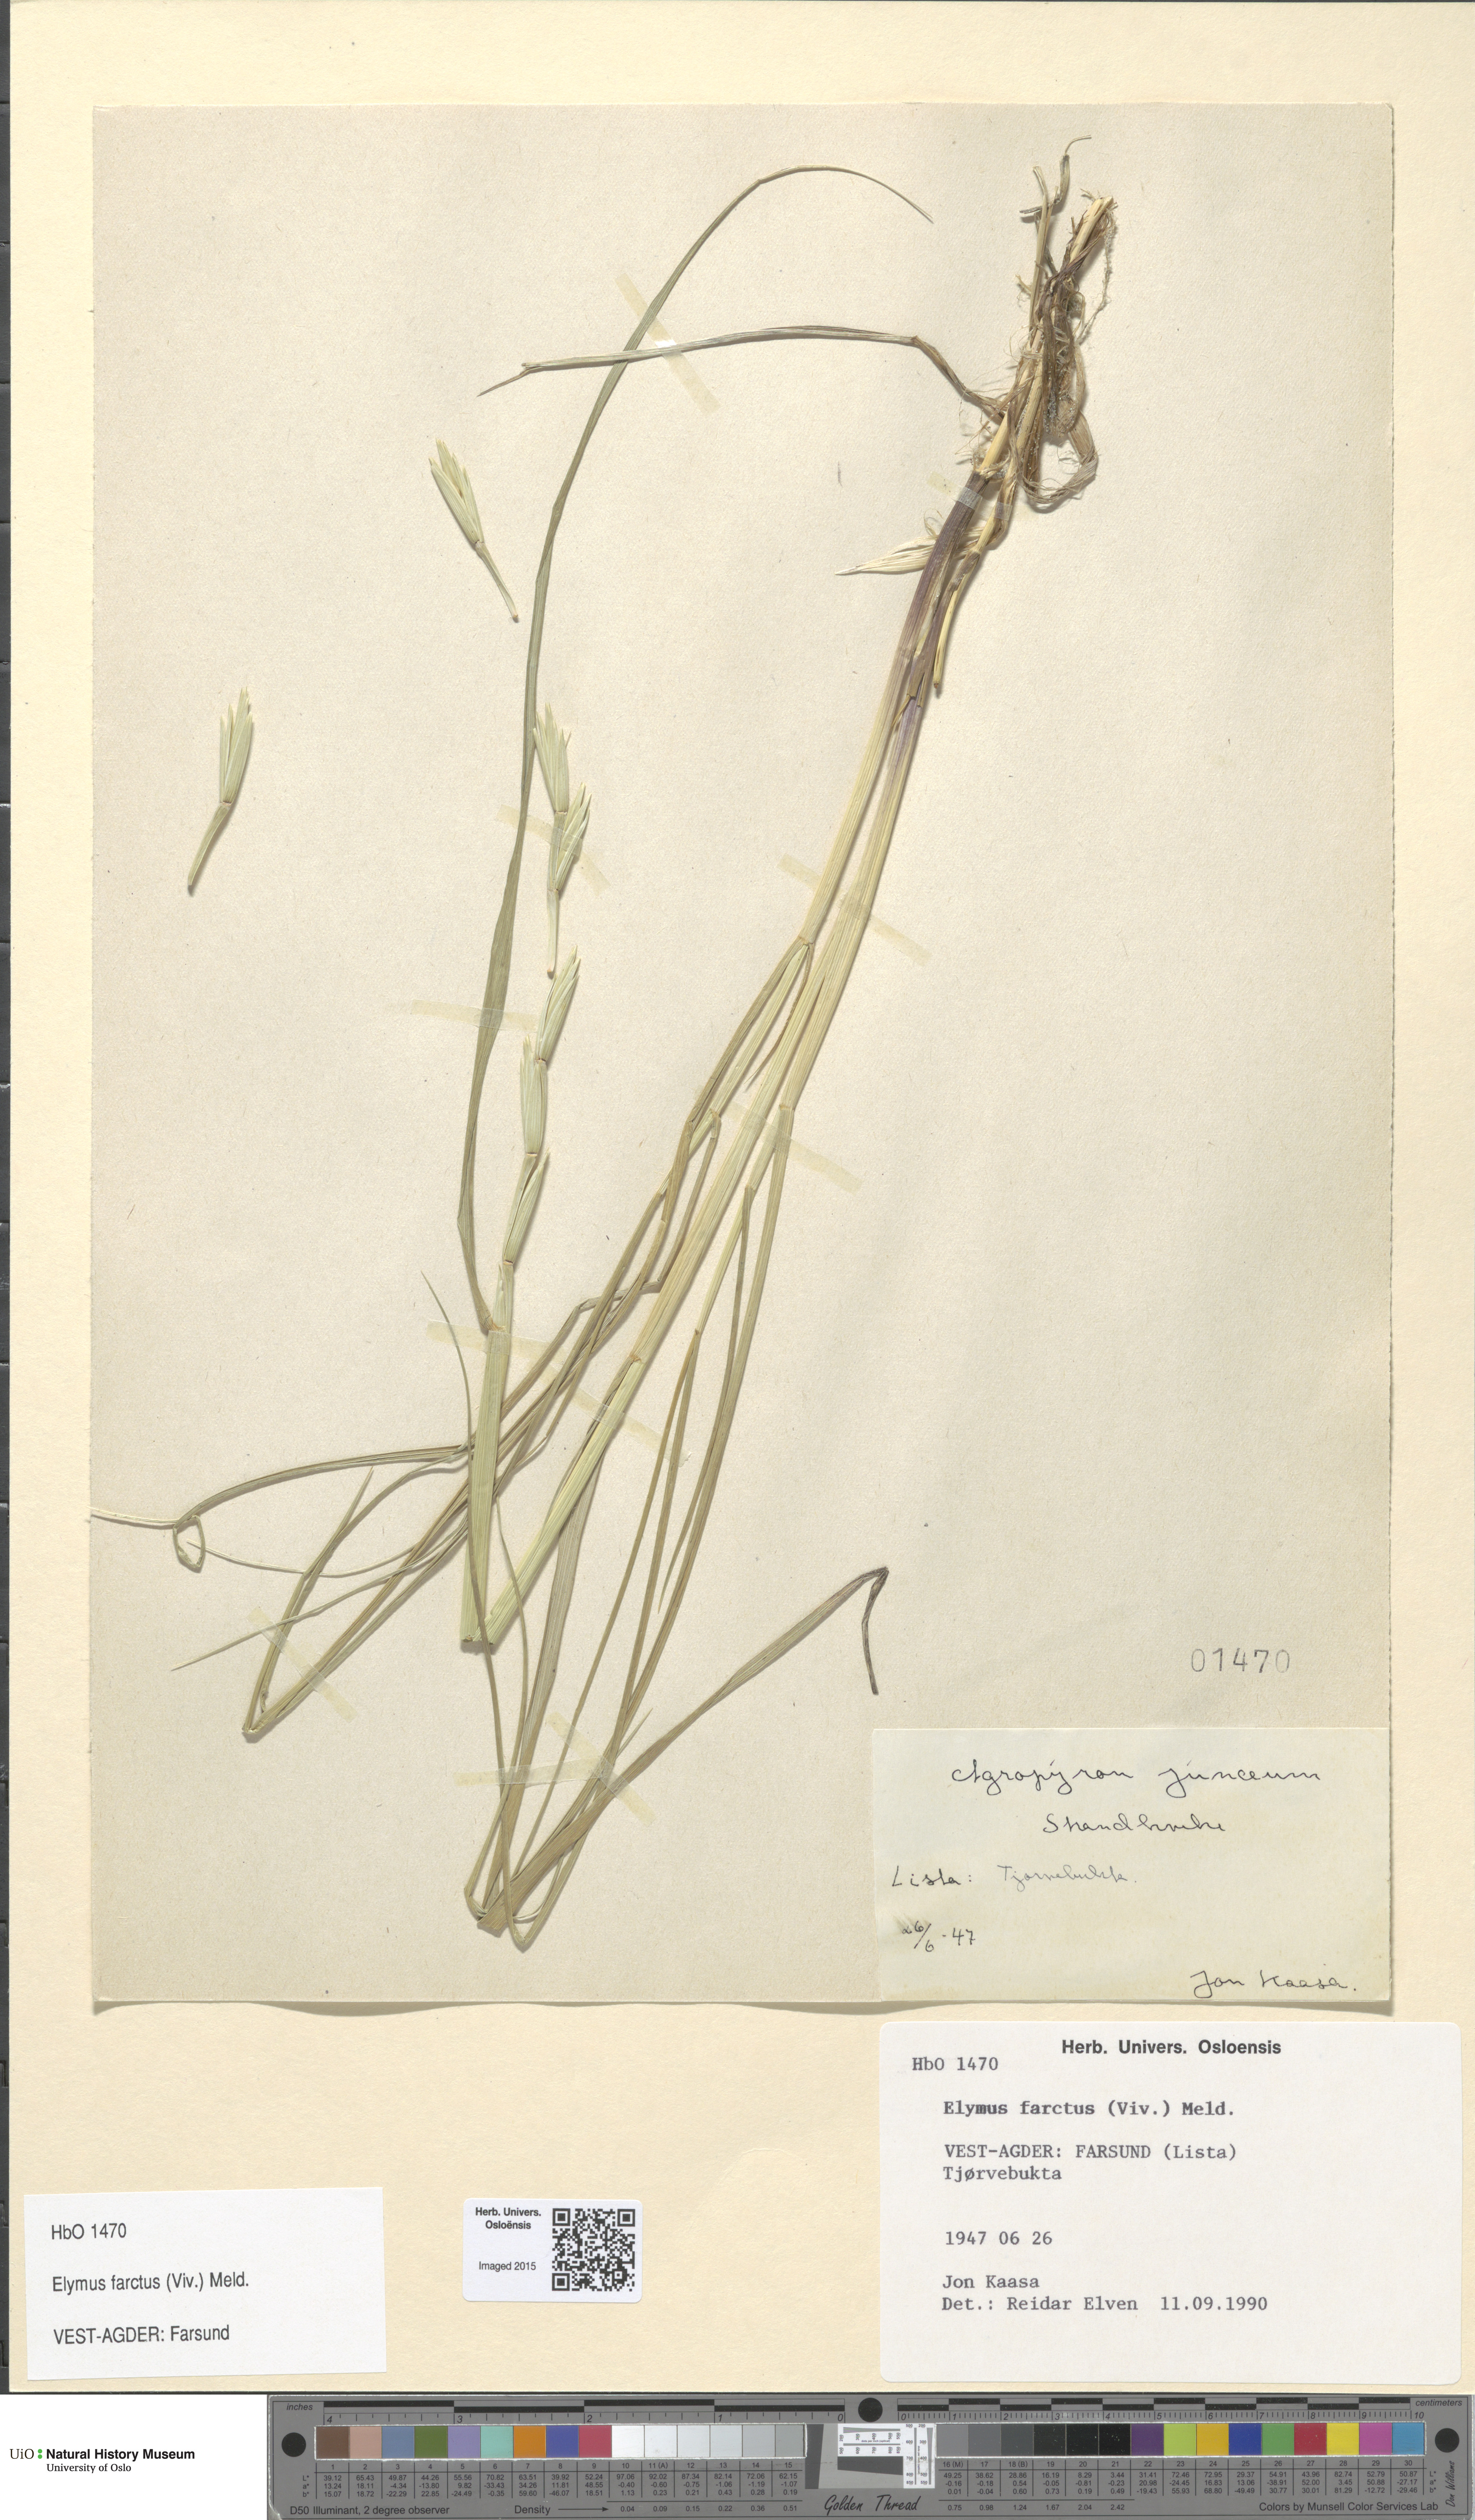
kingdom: Plantae
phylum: Tracheophyta
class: Liliopsida
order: Poales
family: Poaceae
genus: Thinopyrum
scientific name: Thinopyrum junceiforme
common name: Sea couch
